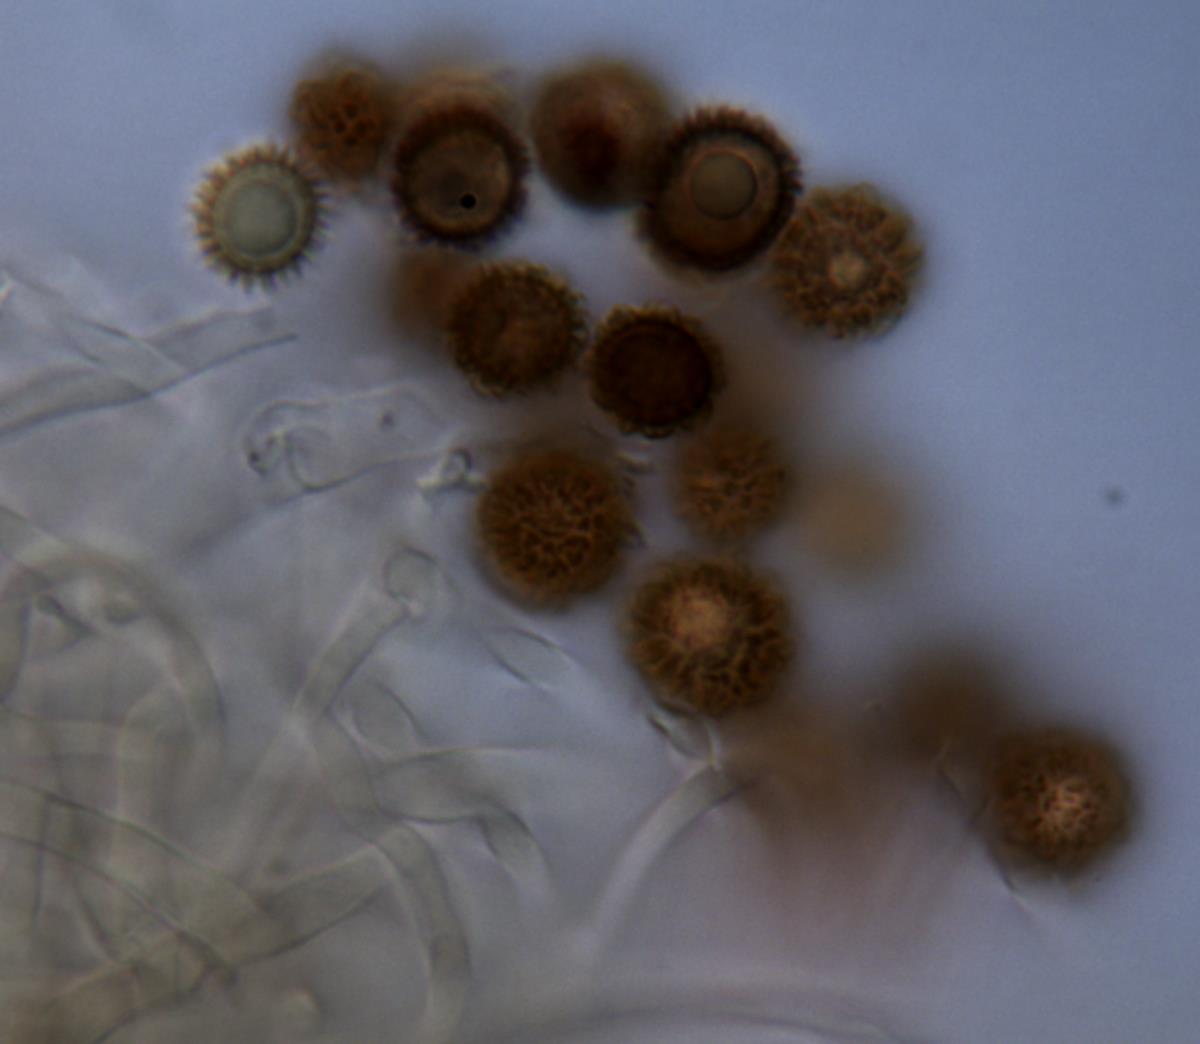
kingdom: Fungi
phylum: Basidiomycota
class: Agaricomycetes
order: Boletales
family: Sclerodermataceae
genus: Pisolithus
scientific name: Pisolithus marmoratus
